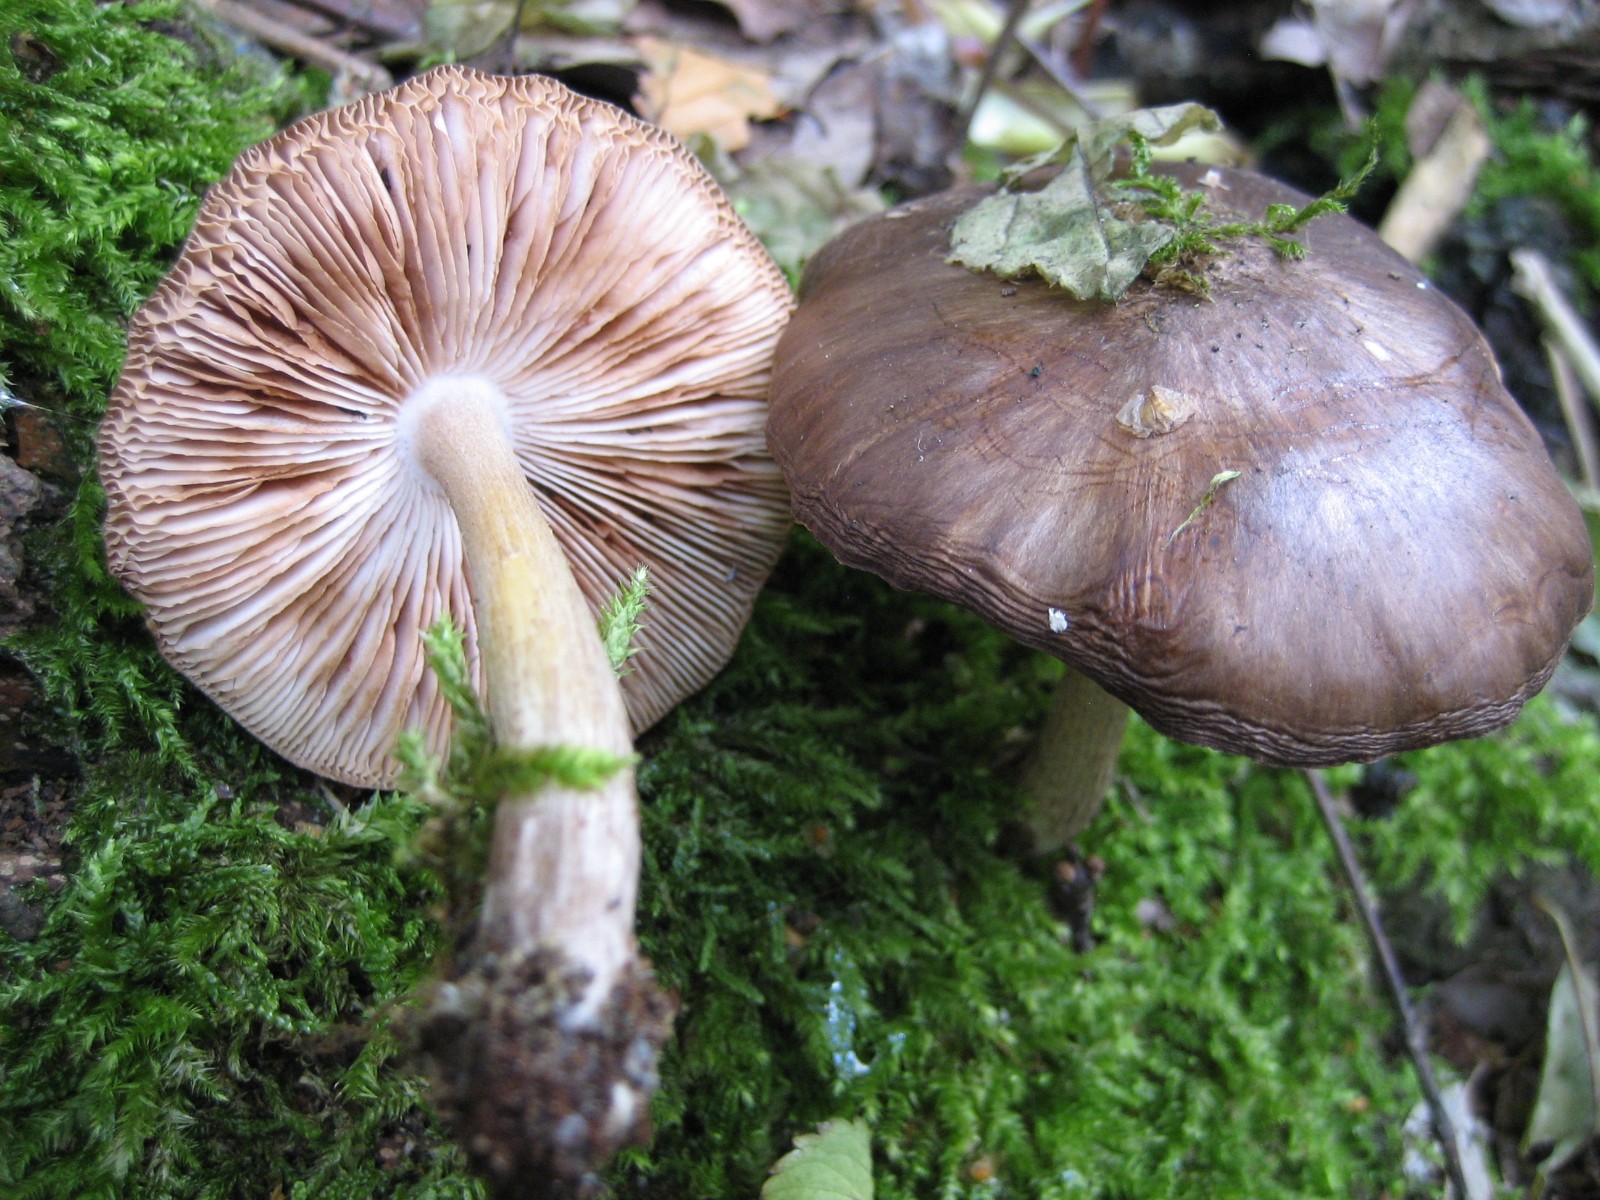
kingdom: Fungi
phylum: Basidiomycota
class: Agaricomycetes
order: Agaricales
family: Pluteaceae
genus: Pluteus
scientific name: Pluteus cervinus
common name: sodfarvet skærmhat
